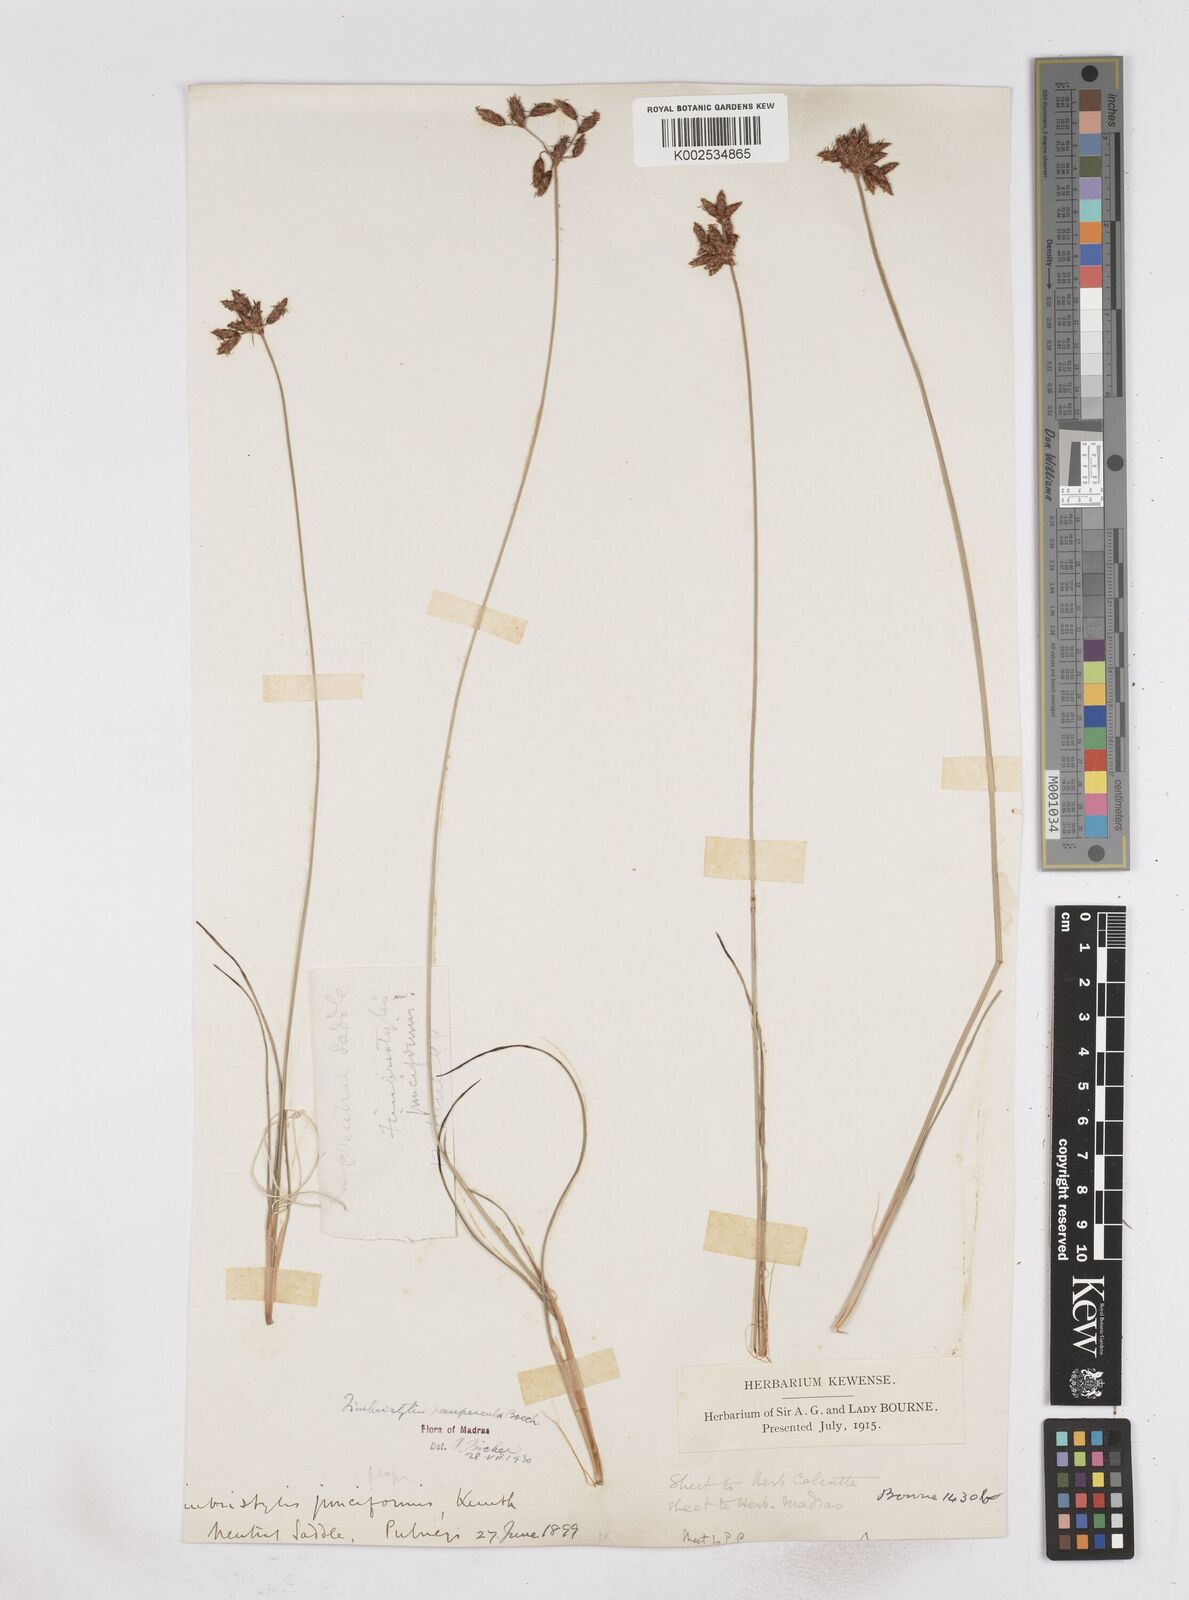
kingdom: Plantae
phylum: Tracheophyta
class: Liliopsida
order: Poales
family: Cyperaceae
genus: Fimbristylis
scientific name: Fimbristylis paupercula
